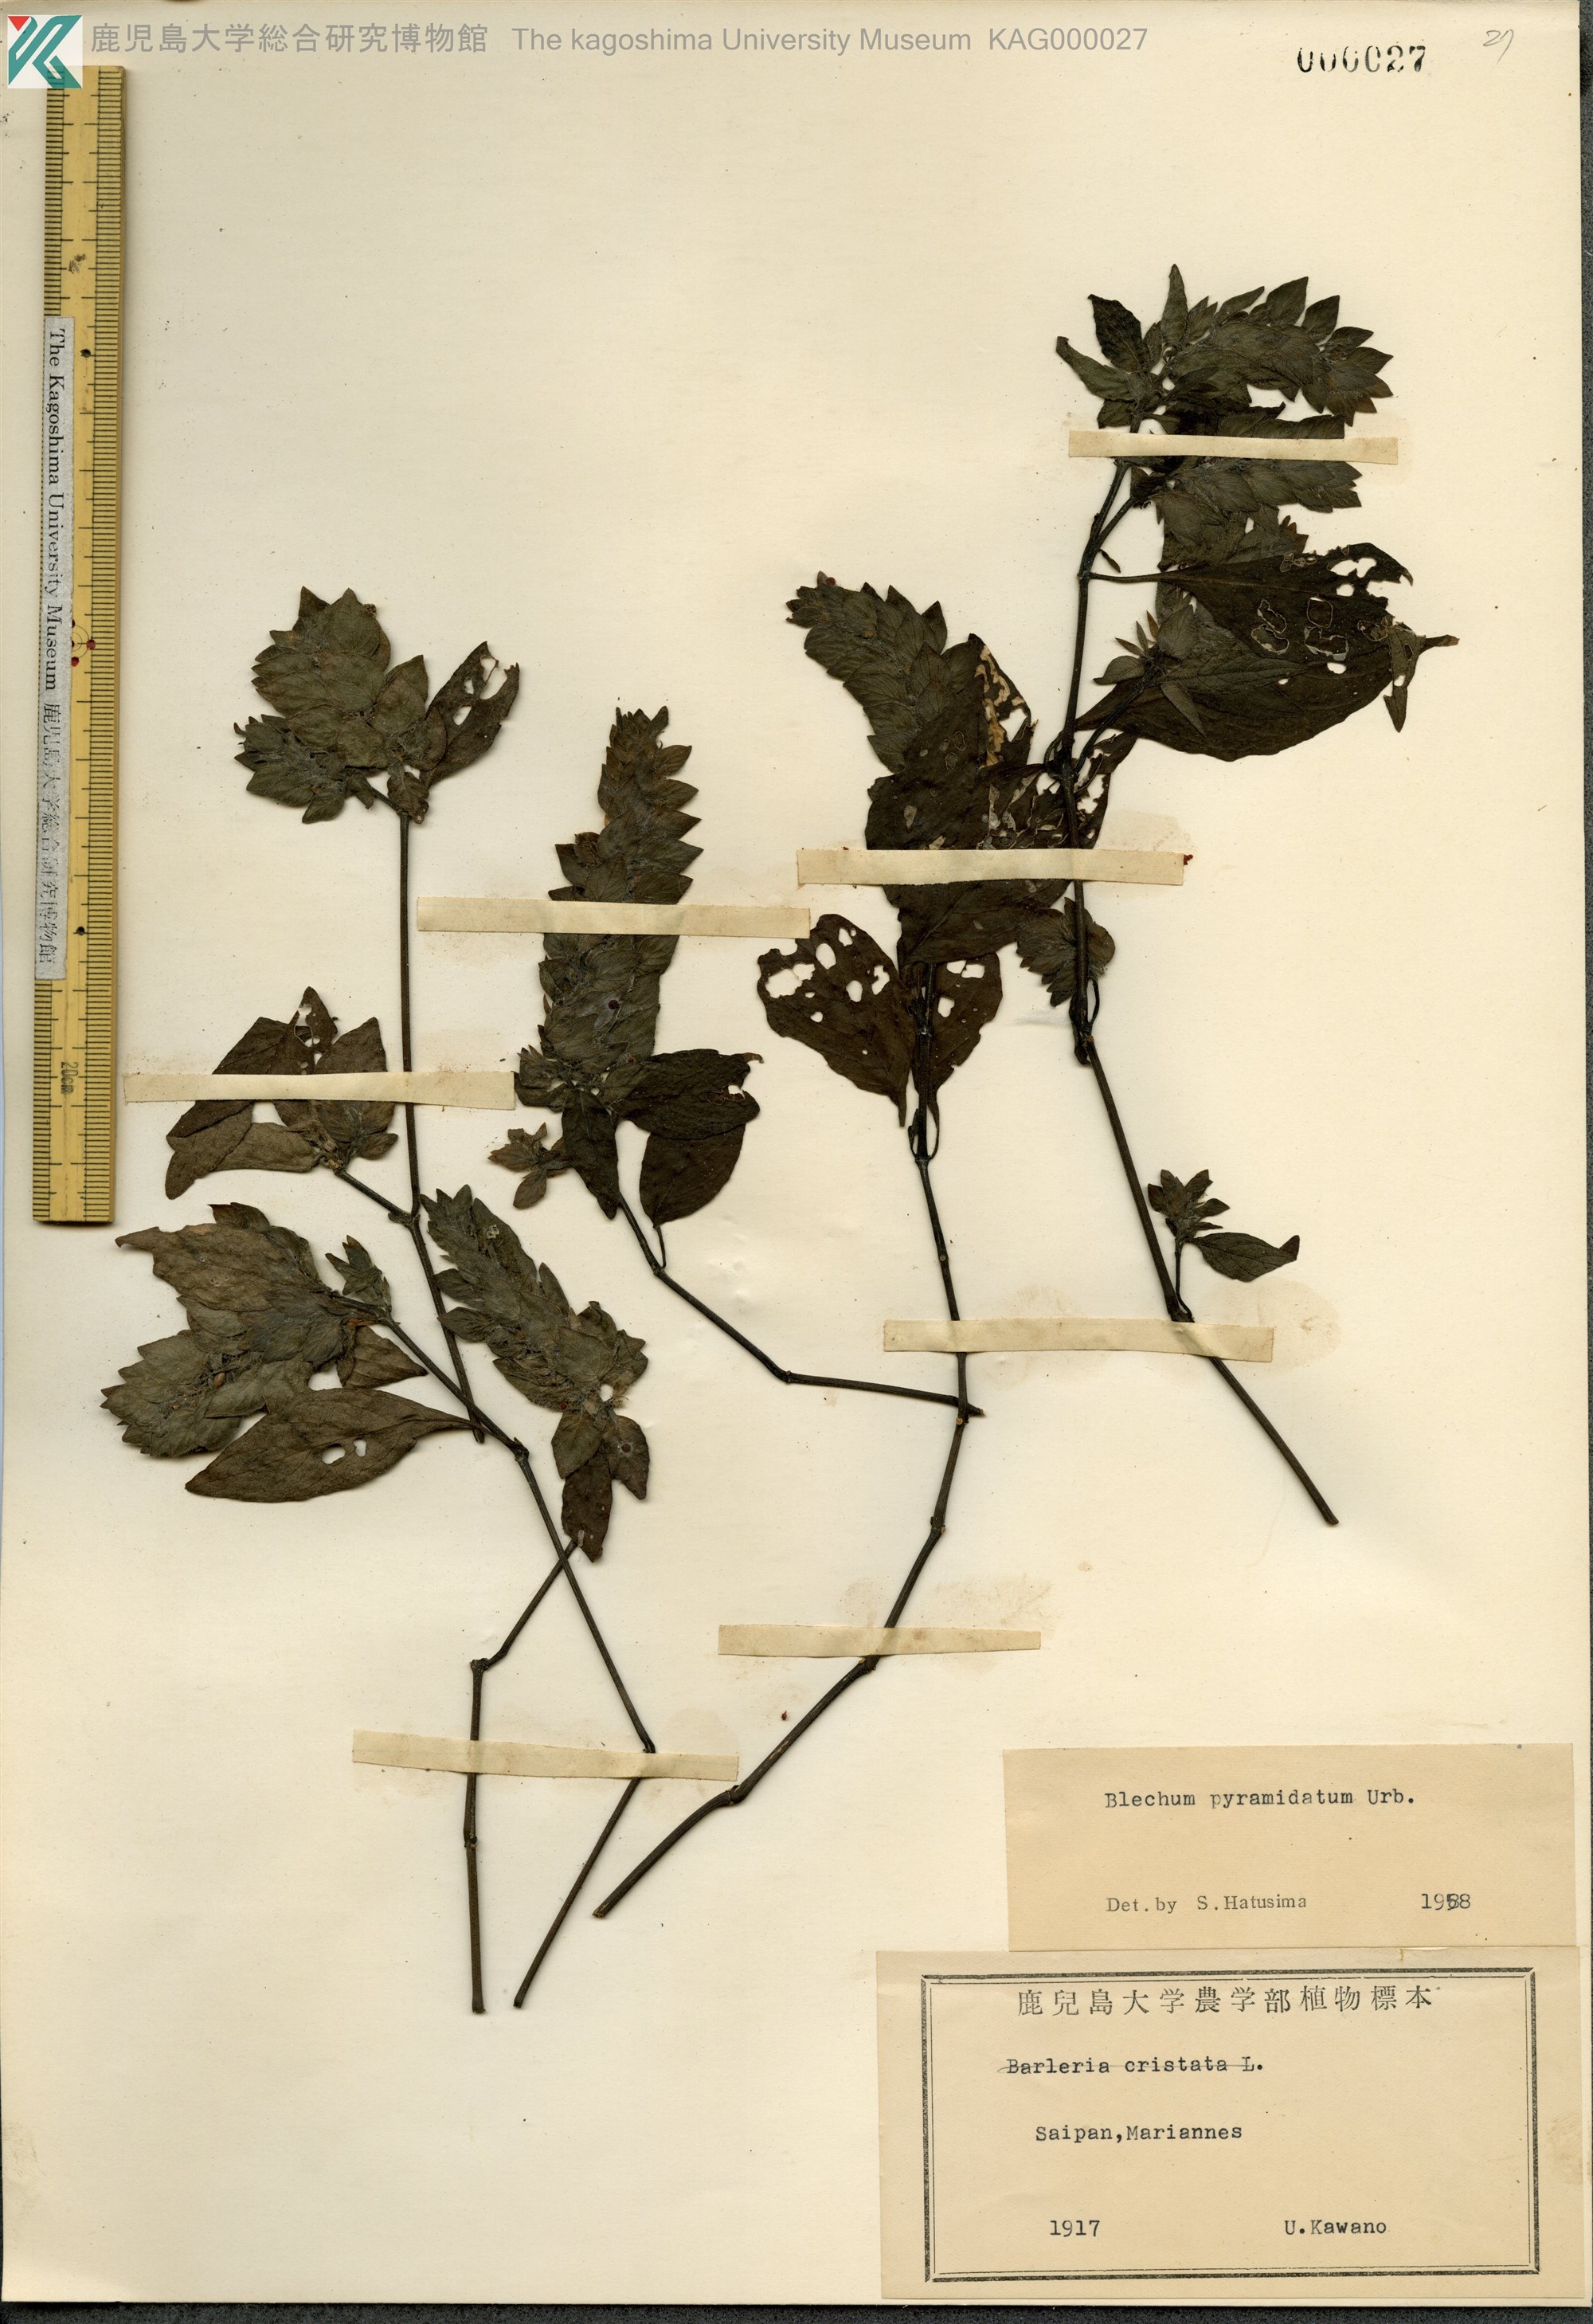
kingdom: Plantae
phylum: Tracheophyta
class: Magnoliopsida
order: Lamiales
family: Acanthaceae
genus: Ruellia
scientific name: Ruellia blechum
